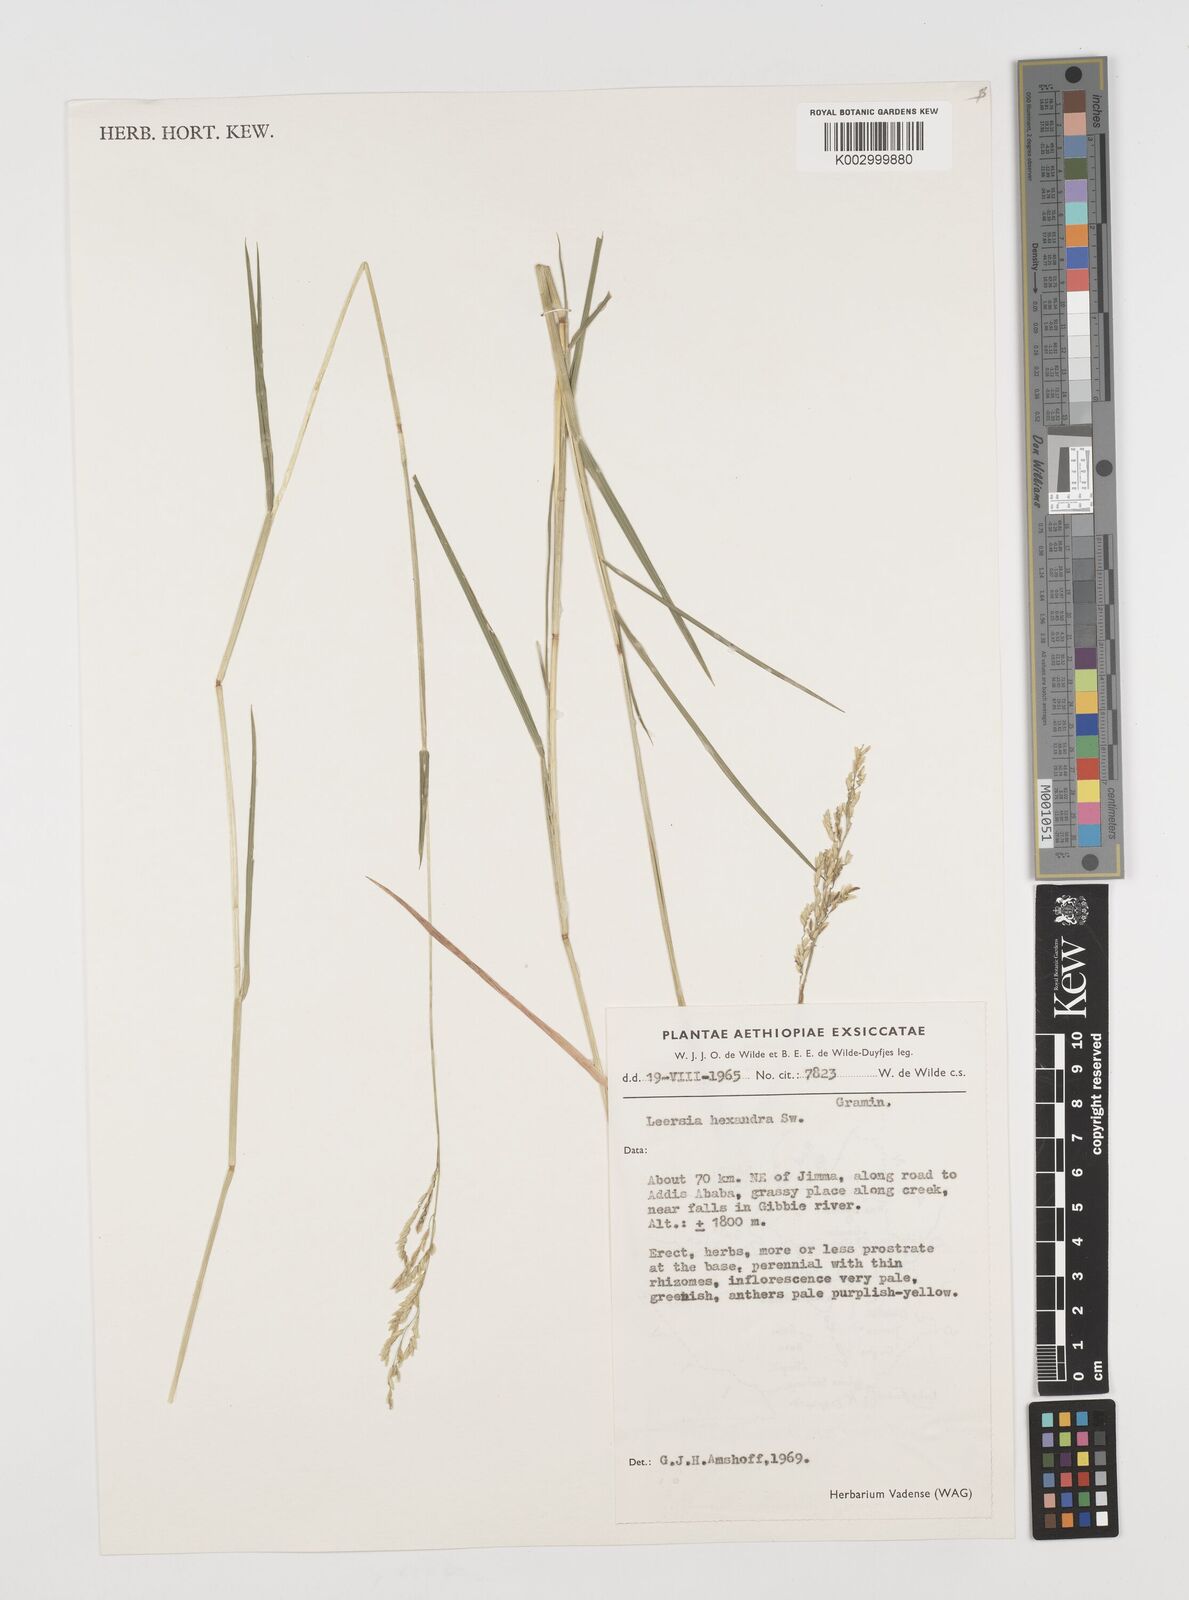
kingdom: Plantae
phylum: Tracheophyta
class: Liliopsida
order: Poales
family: Poaceae
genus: Leersia
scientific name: Leersia hexandra
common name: Southern cut grass
